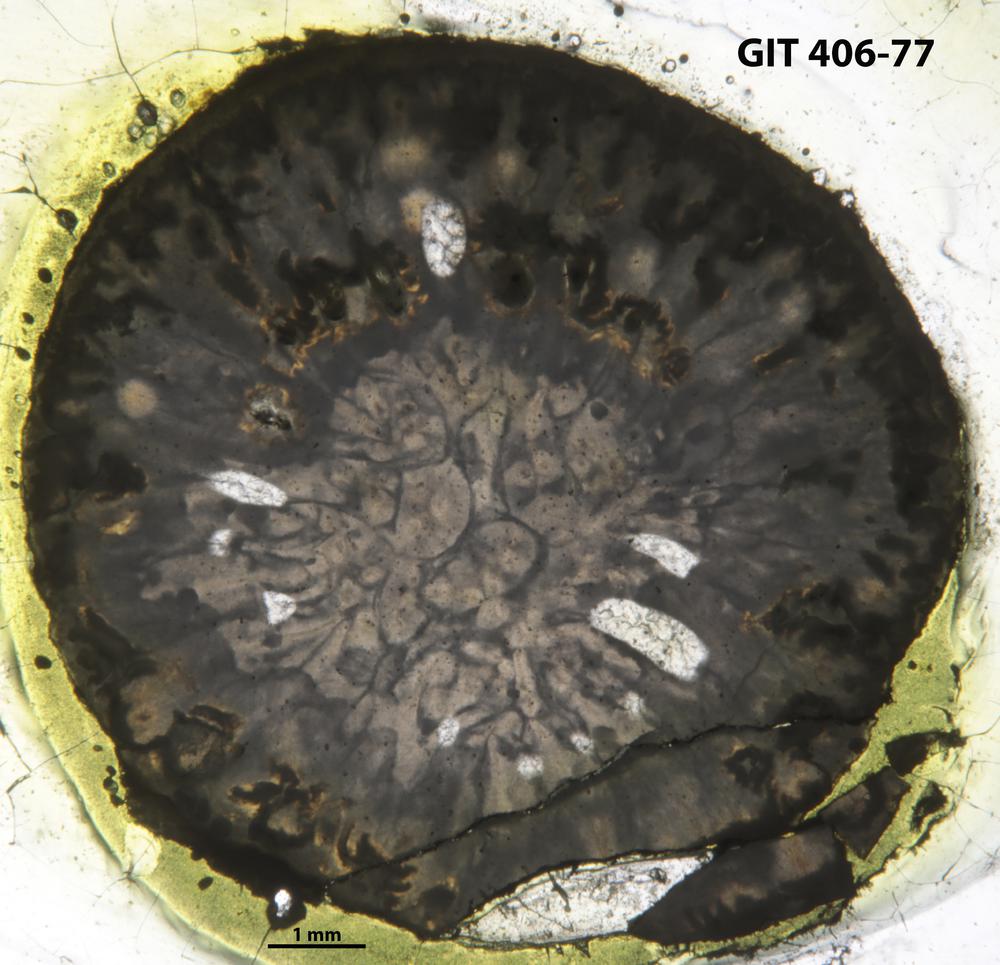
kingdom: Animalia
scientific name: Animalia
